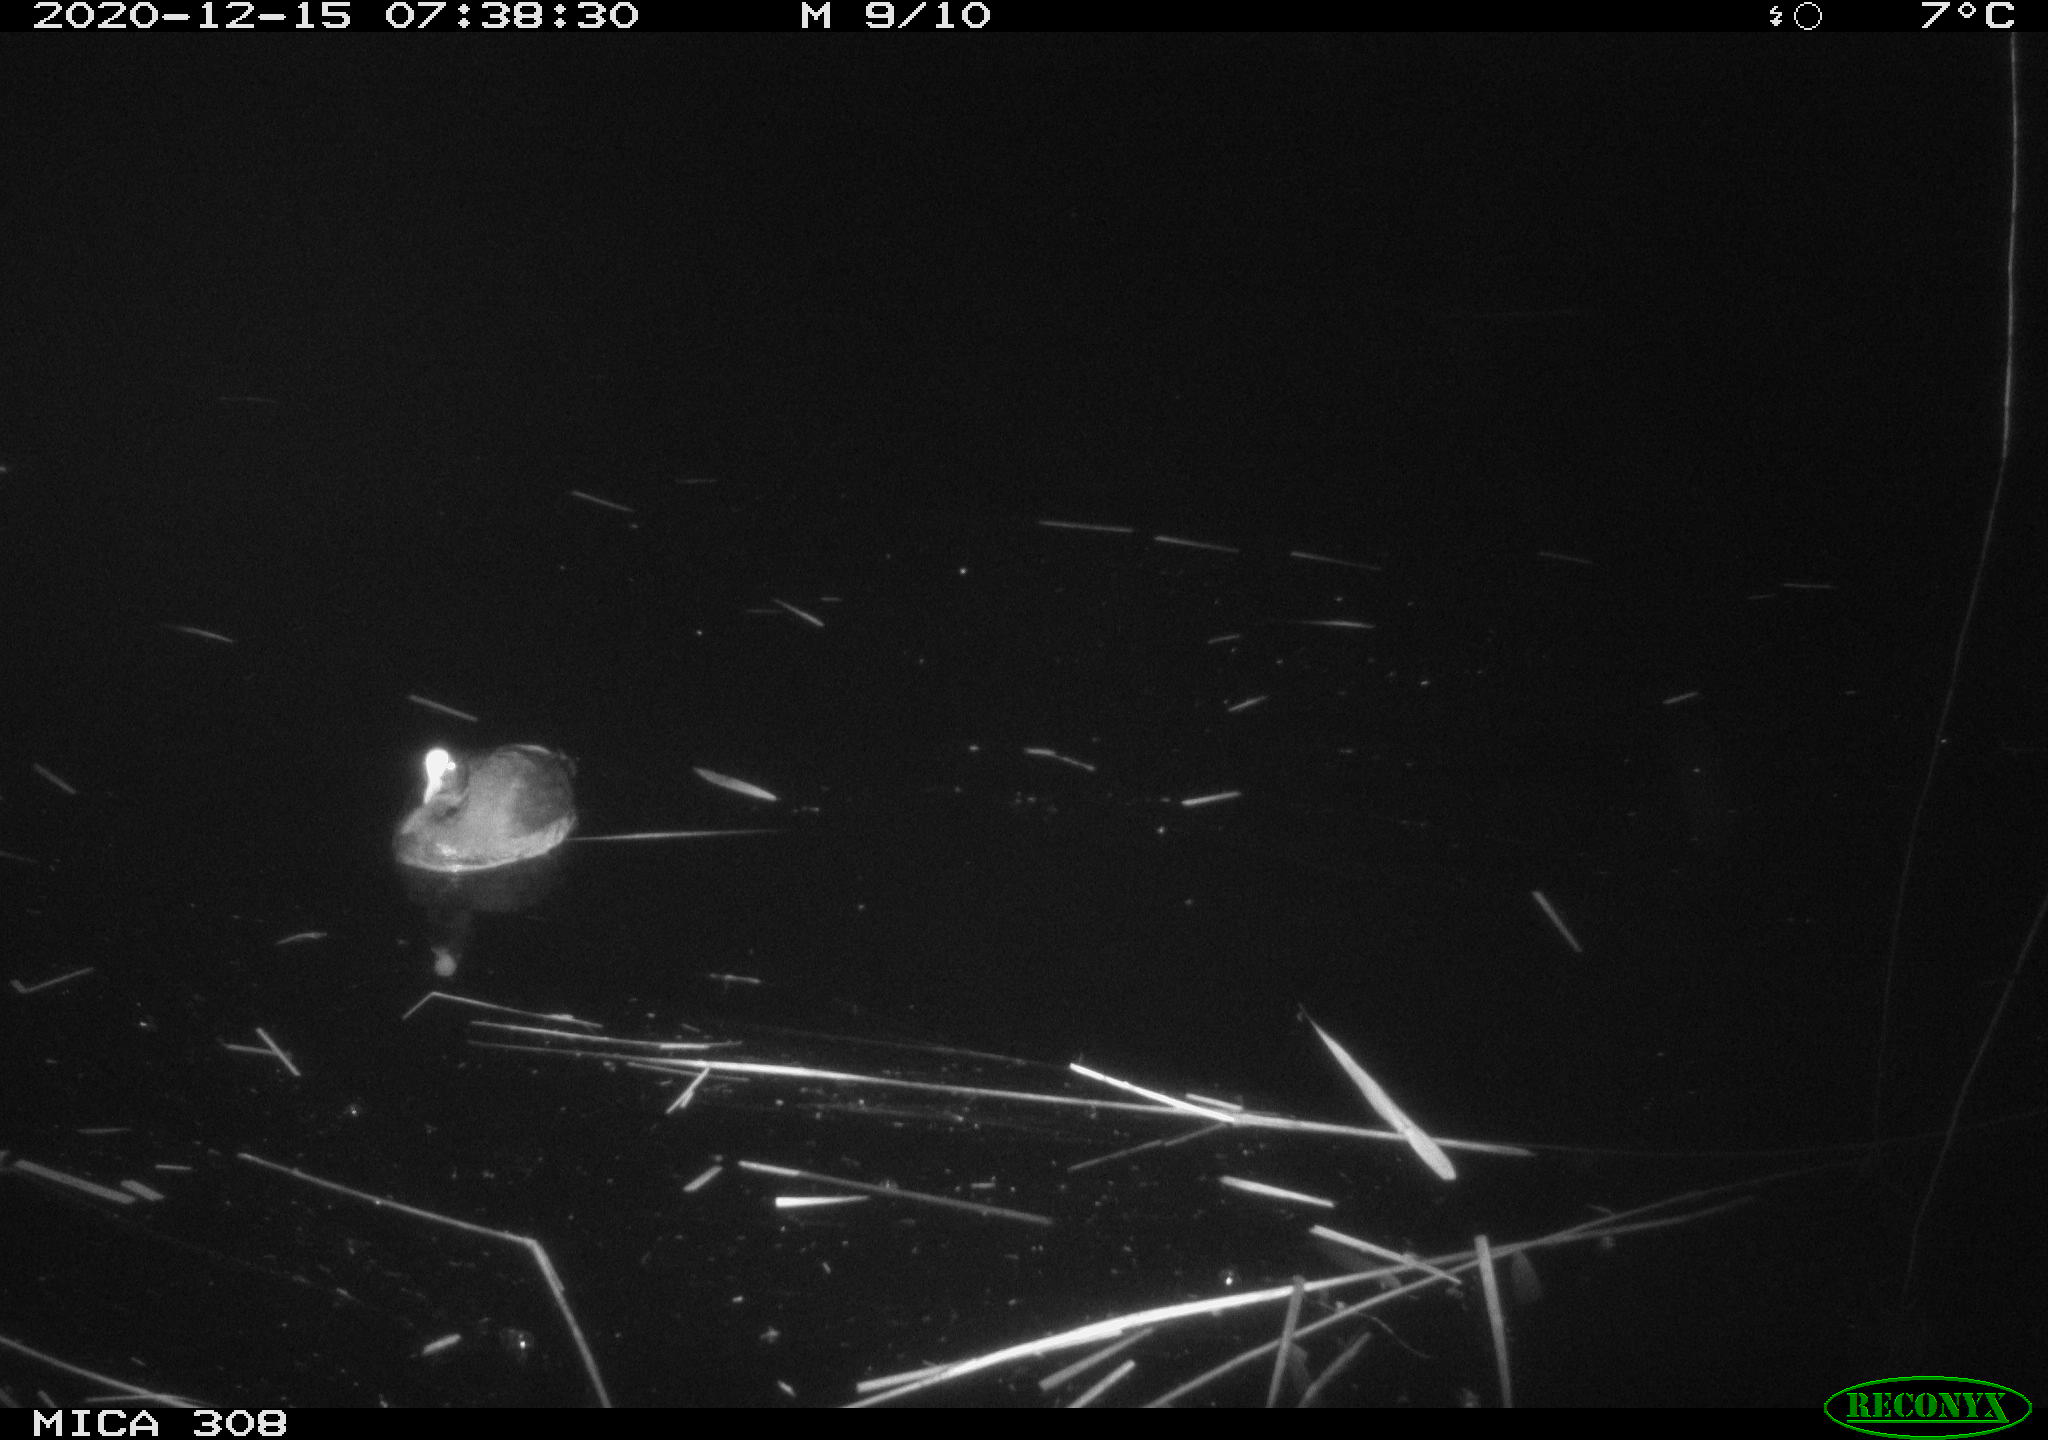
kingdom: Animalia
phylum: Chordata
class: Aves
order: Gruiformes
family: Rallidae
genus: Fulica
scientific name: Fulica atra
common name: Eurasian coot
